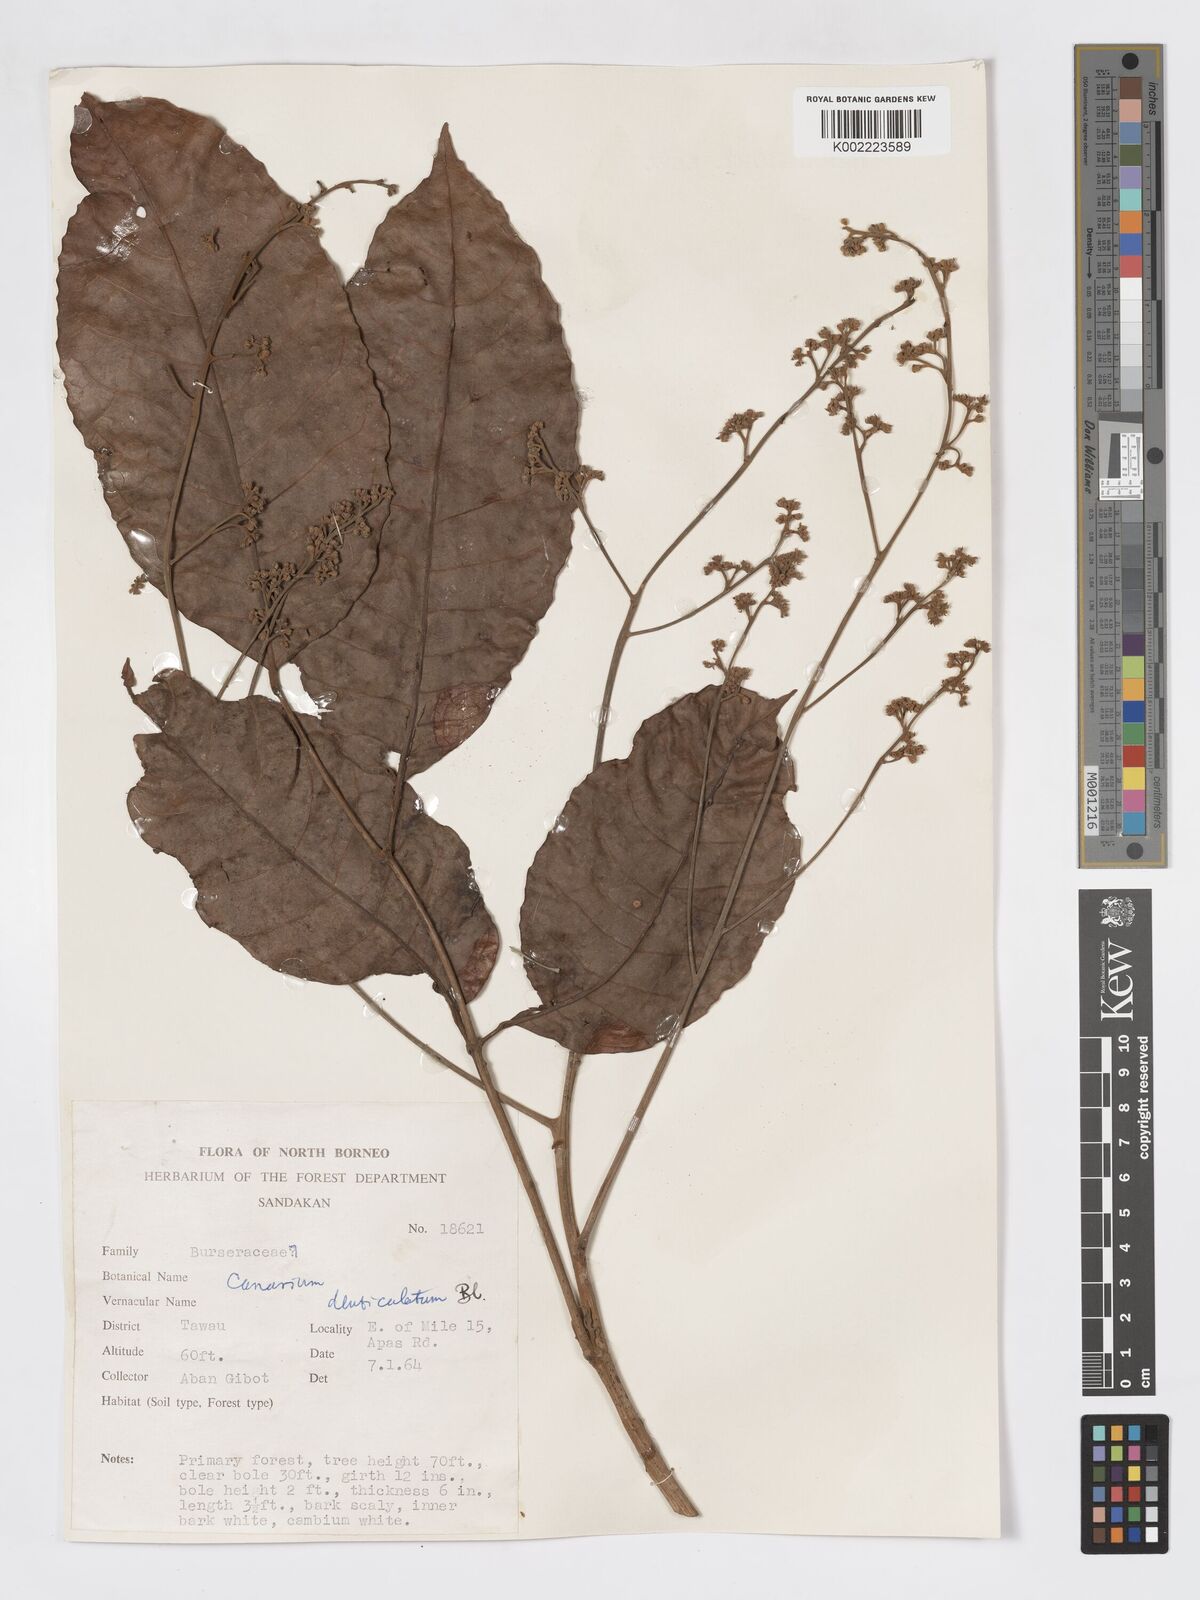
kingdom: Plantae
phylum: Tracheophyta
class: Magnoliopsida
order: Sapindales
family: Burseraceae
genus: Canarium
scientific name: Canarium denticulatum
